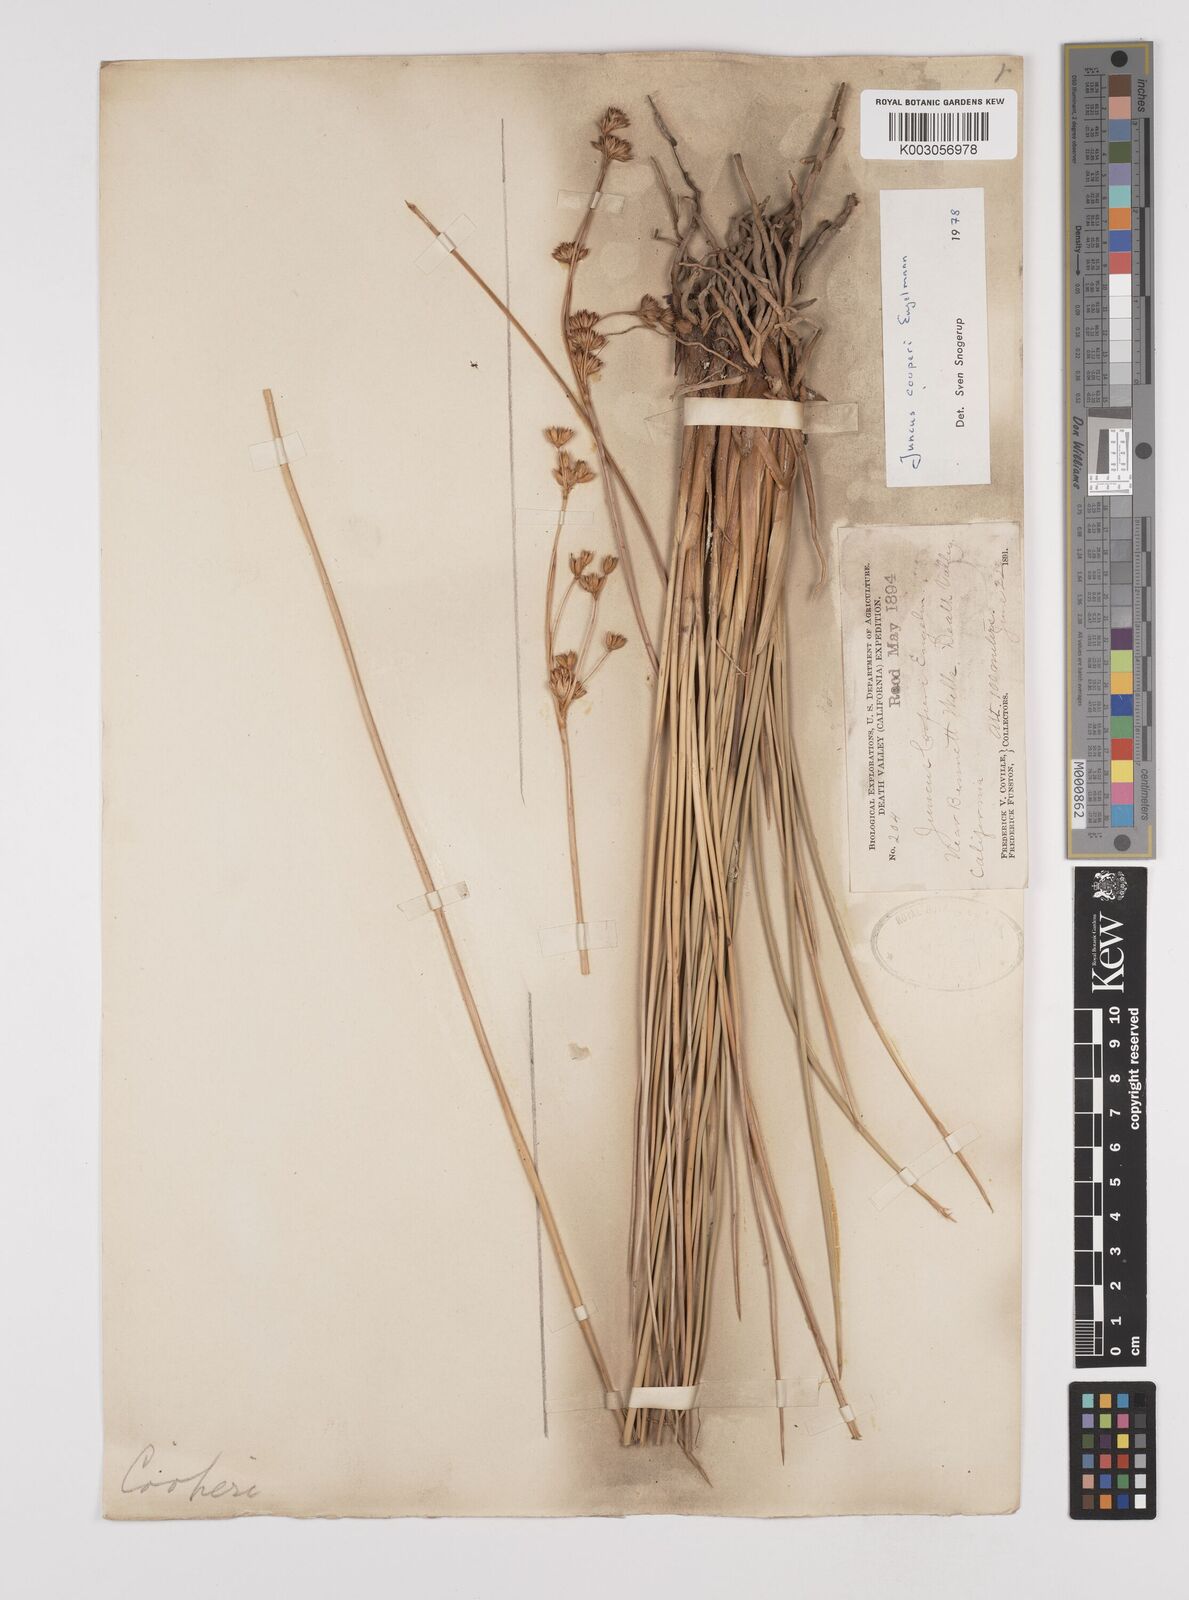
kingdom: Plantae
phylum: Tracheophyta
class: Liliopsida
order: Poales
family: Juncaceae
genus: Juncus
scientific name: Juncus cooperi
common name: Cooper's rush
